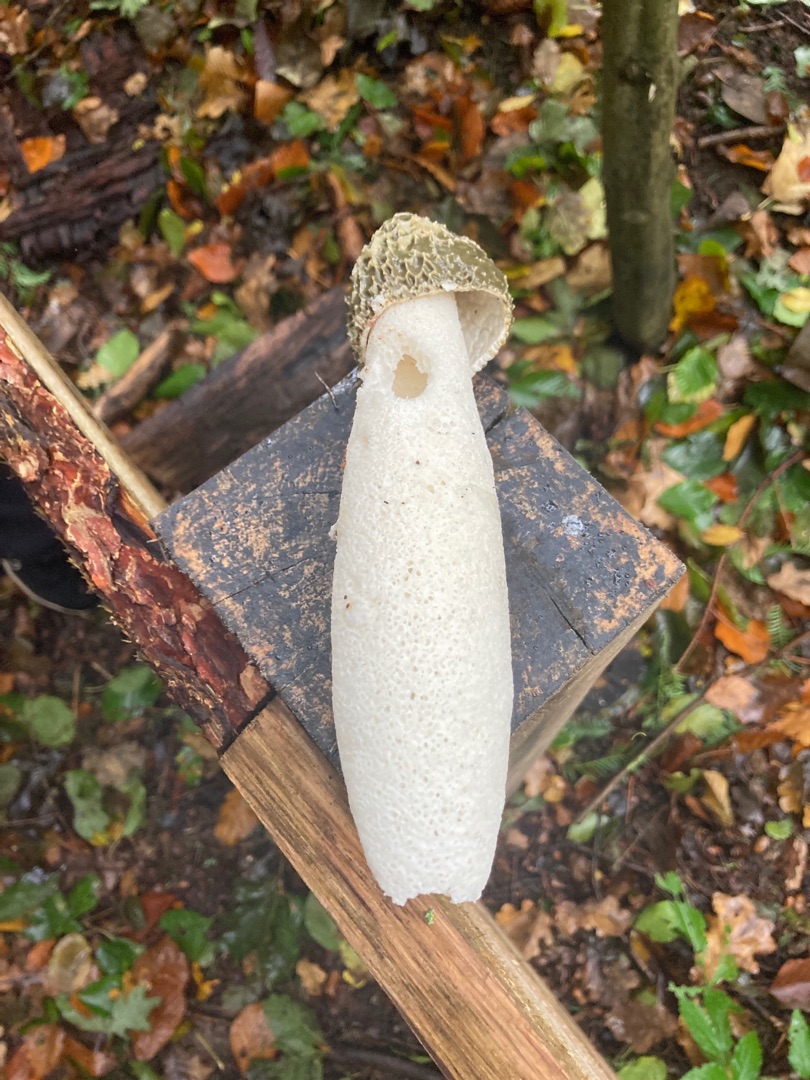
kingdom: Fungi
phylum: Basidiomycota
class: Agaricomycetes
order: Phallales
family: Phallaceae
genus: Phallus
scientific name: Phallus impudicus
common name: Almindelig stinksvamp
